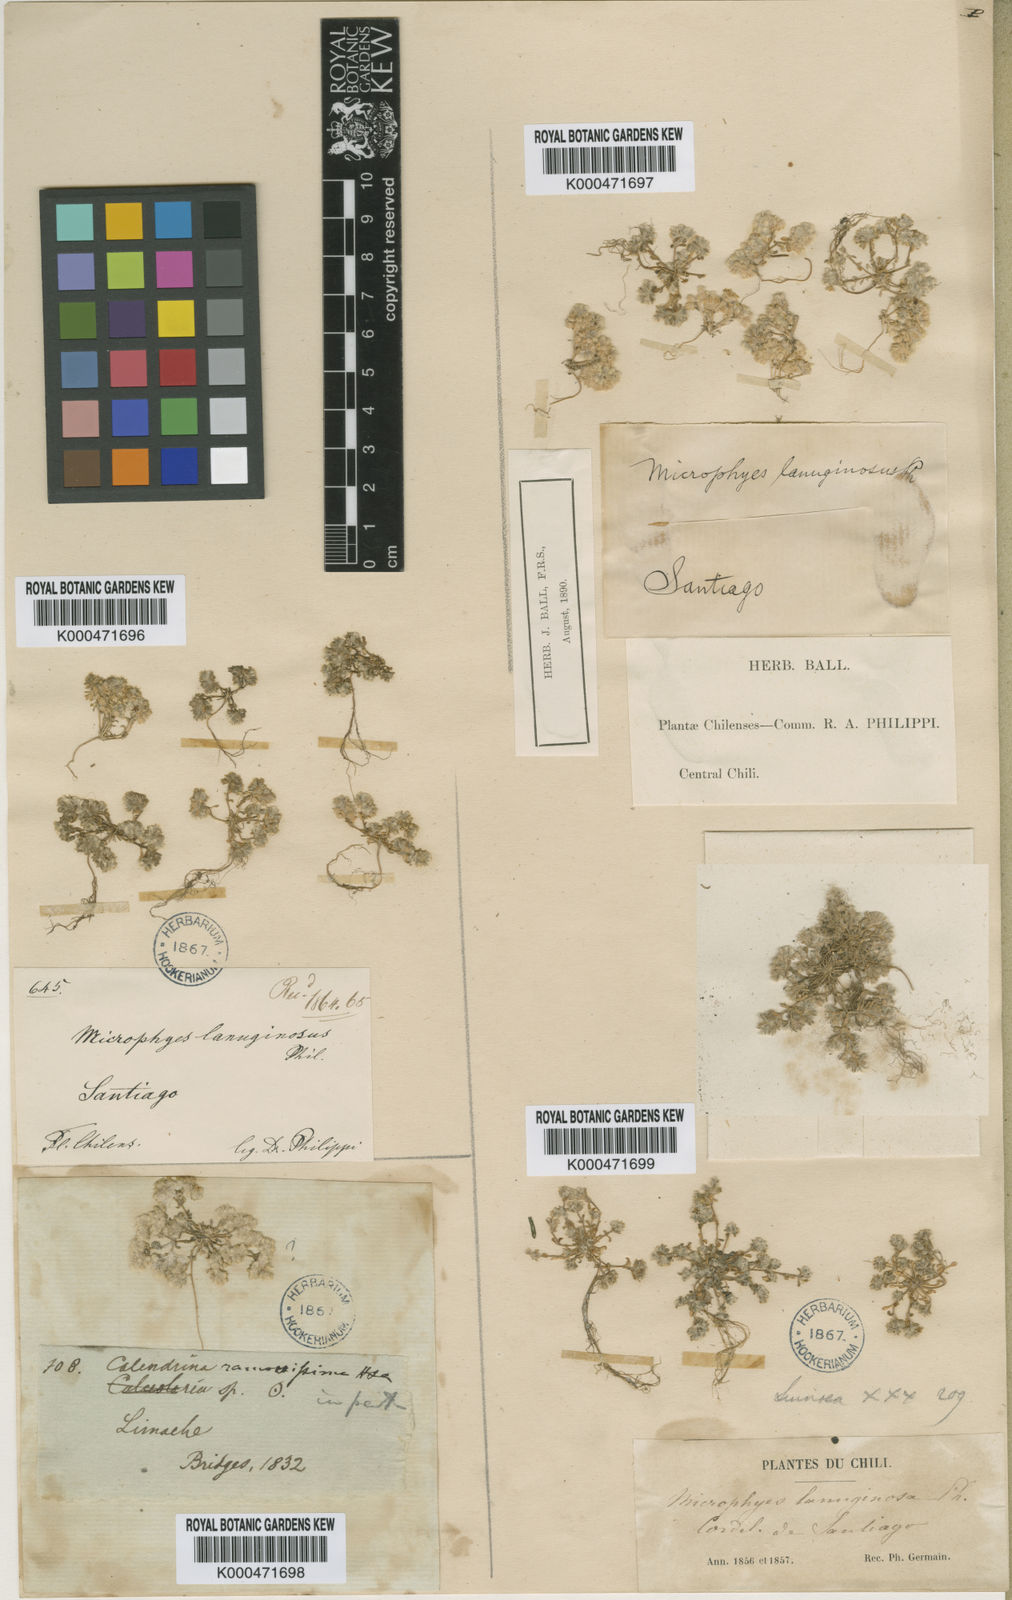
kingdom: Plantae
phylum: Tracheophyta
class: Magnoliopsida
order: Caryophyllales
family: Caryophyllaceae
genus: Microphyes
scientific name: Microphyes minima
